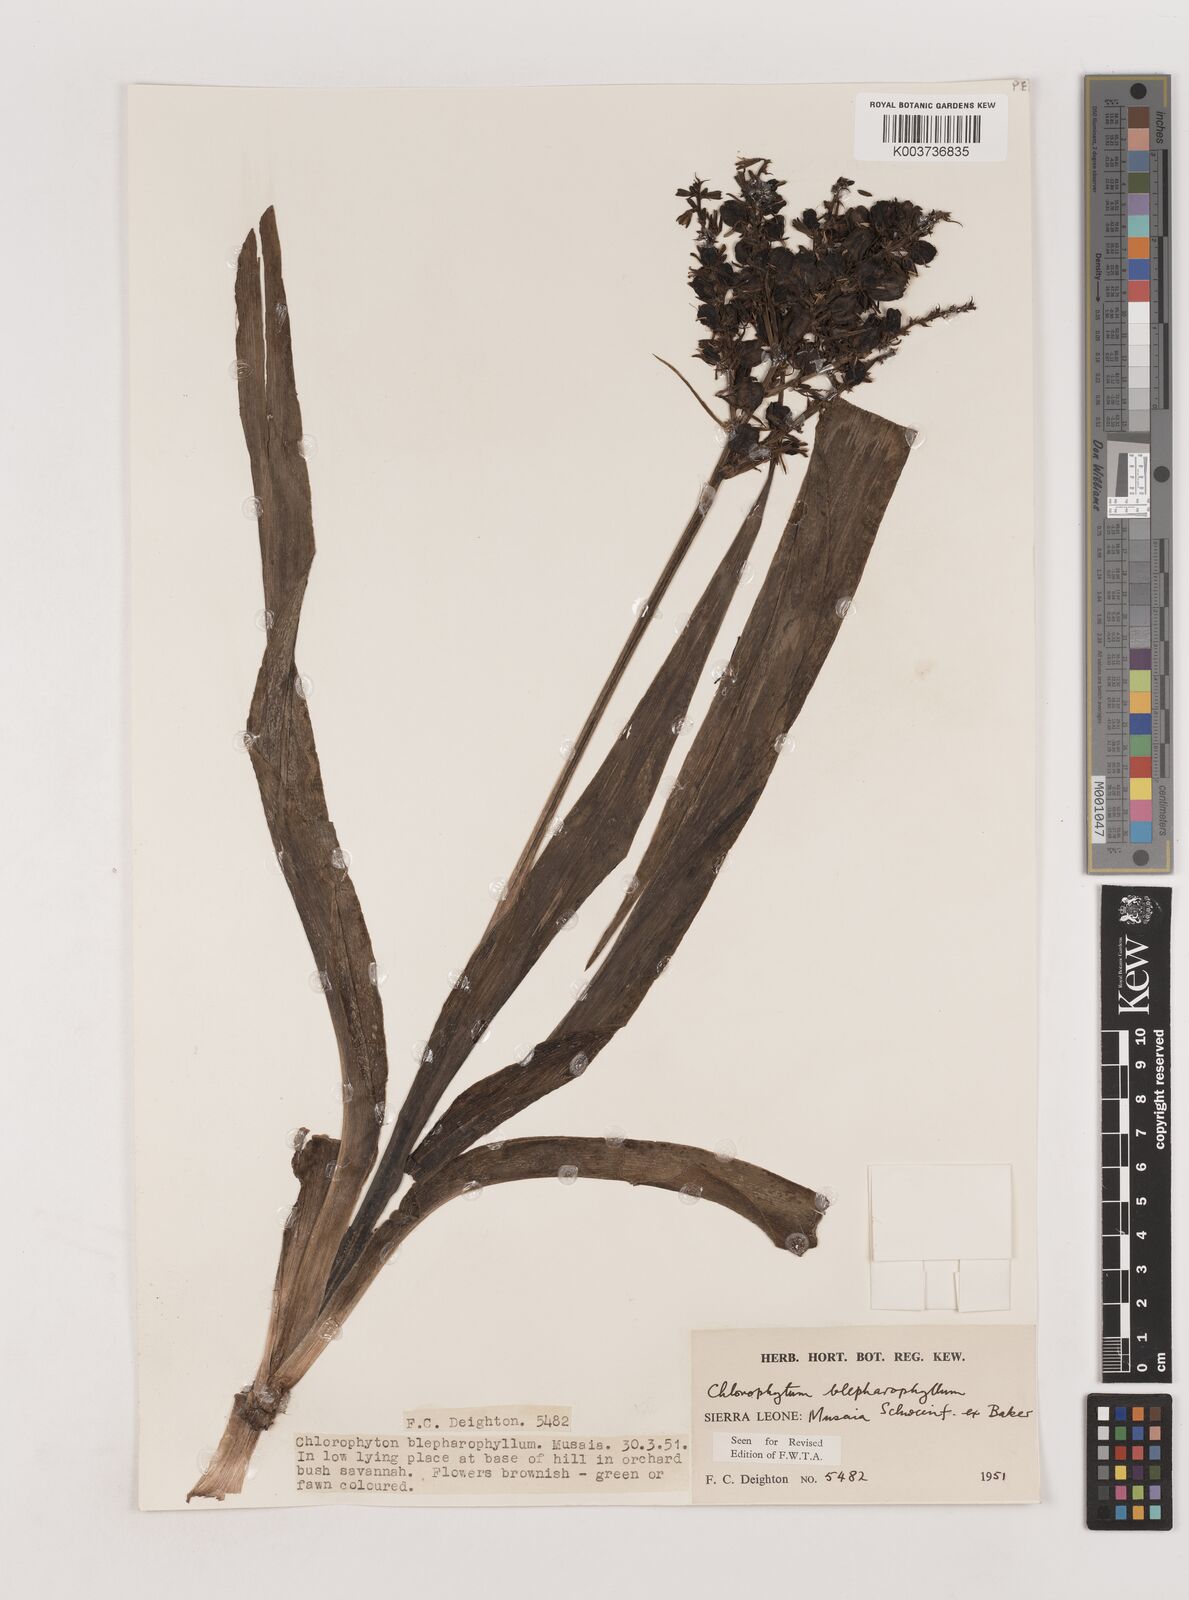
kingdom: Plantae
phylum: Tracheophyta
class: Liliopsida
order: Asparagales
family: Asparagaceae
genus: Chlorophytum
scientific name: Chlorophytum blepharophyllum
